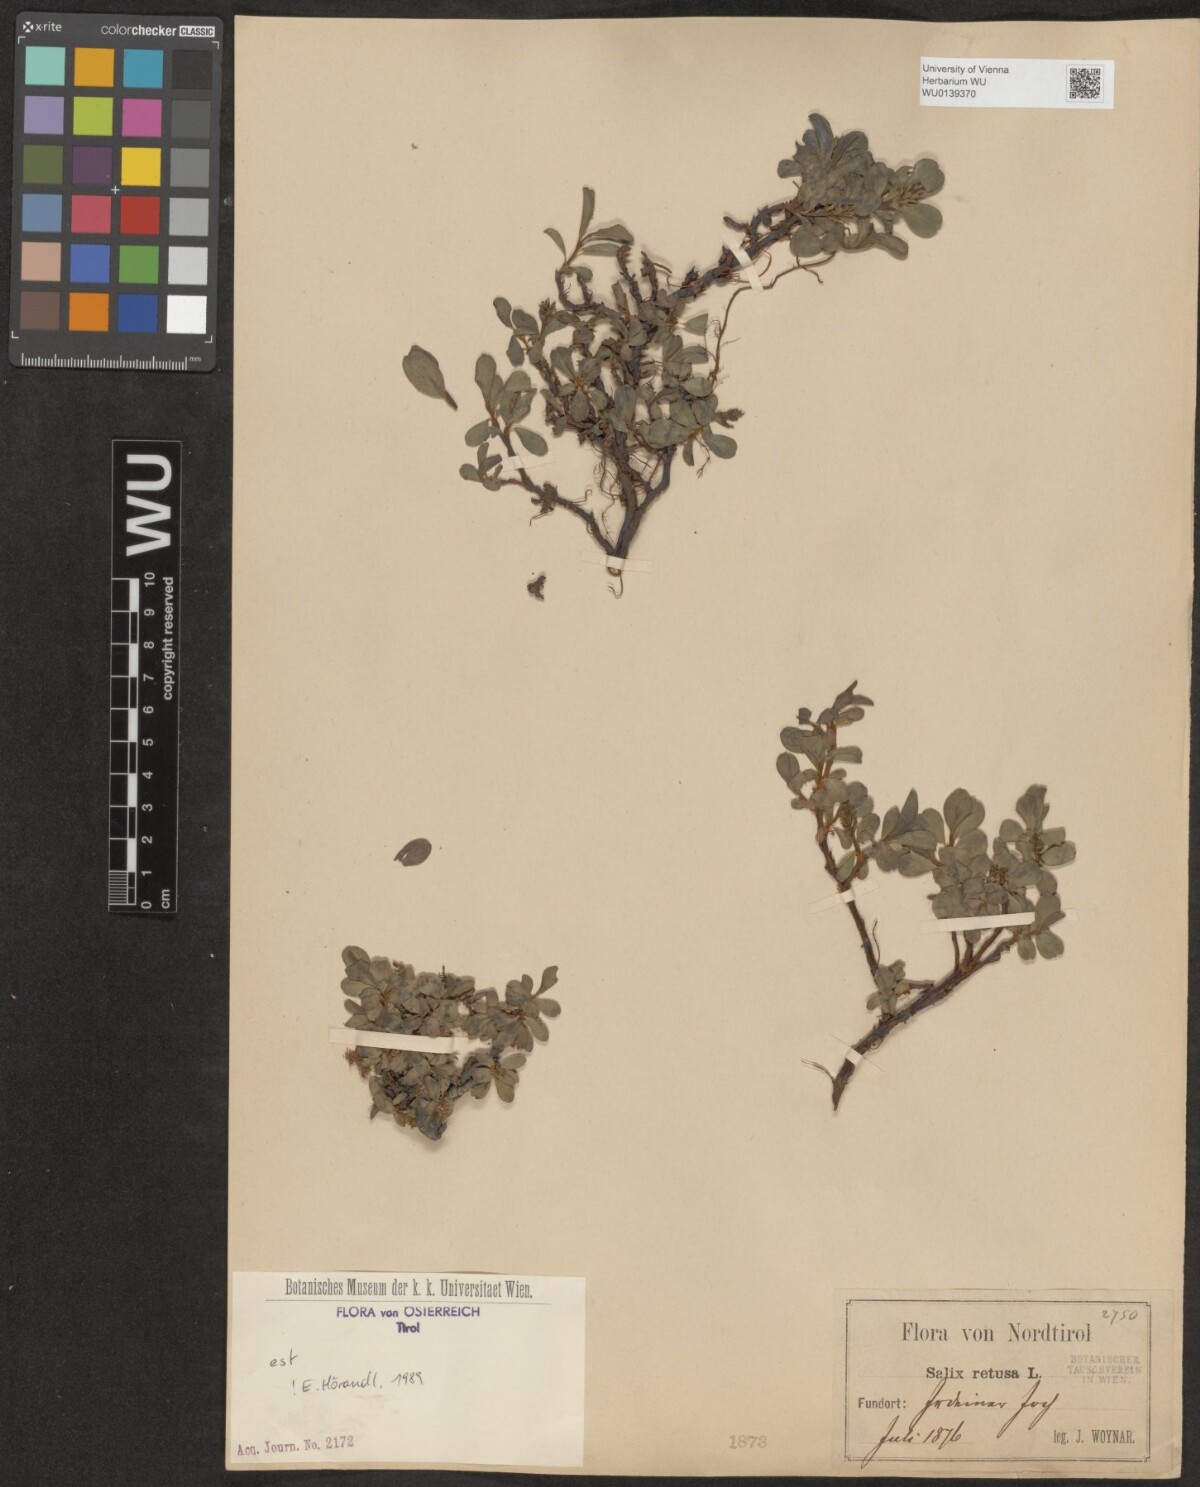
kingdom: Plantae
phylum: Tracheophyta
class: Magnoliopsida
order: Malpighiales
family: Salicaceae
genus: Salix
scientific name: Salix retusa
